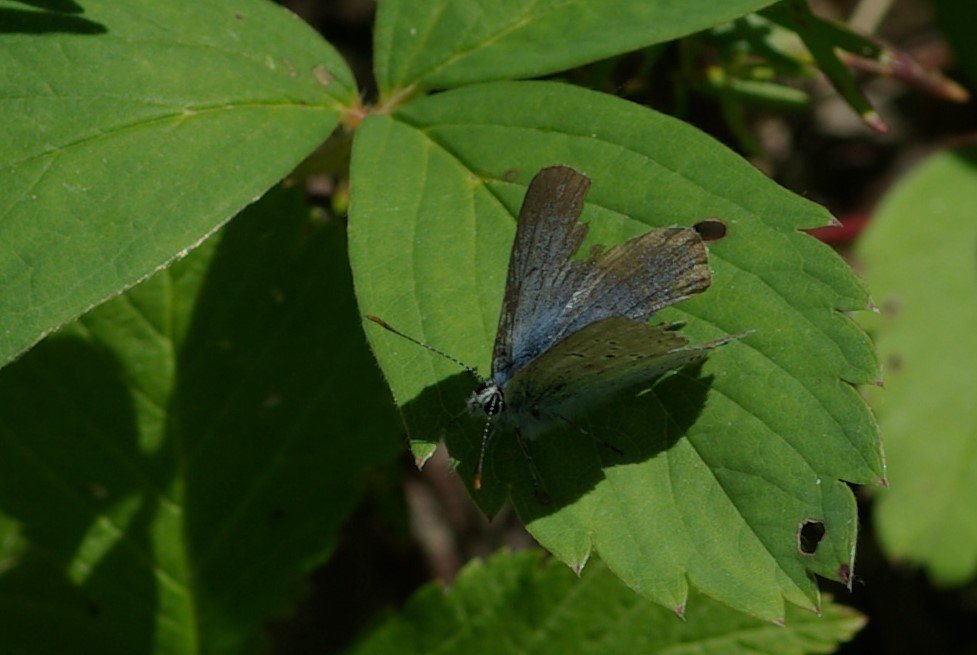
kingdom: Animalia
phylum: Arthropoda
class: Insecta
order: Lepidoptera
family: Lycaenidae
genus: Plebejus
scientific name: Plebejus saepiolus
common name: Greenish Blue
